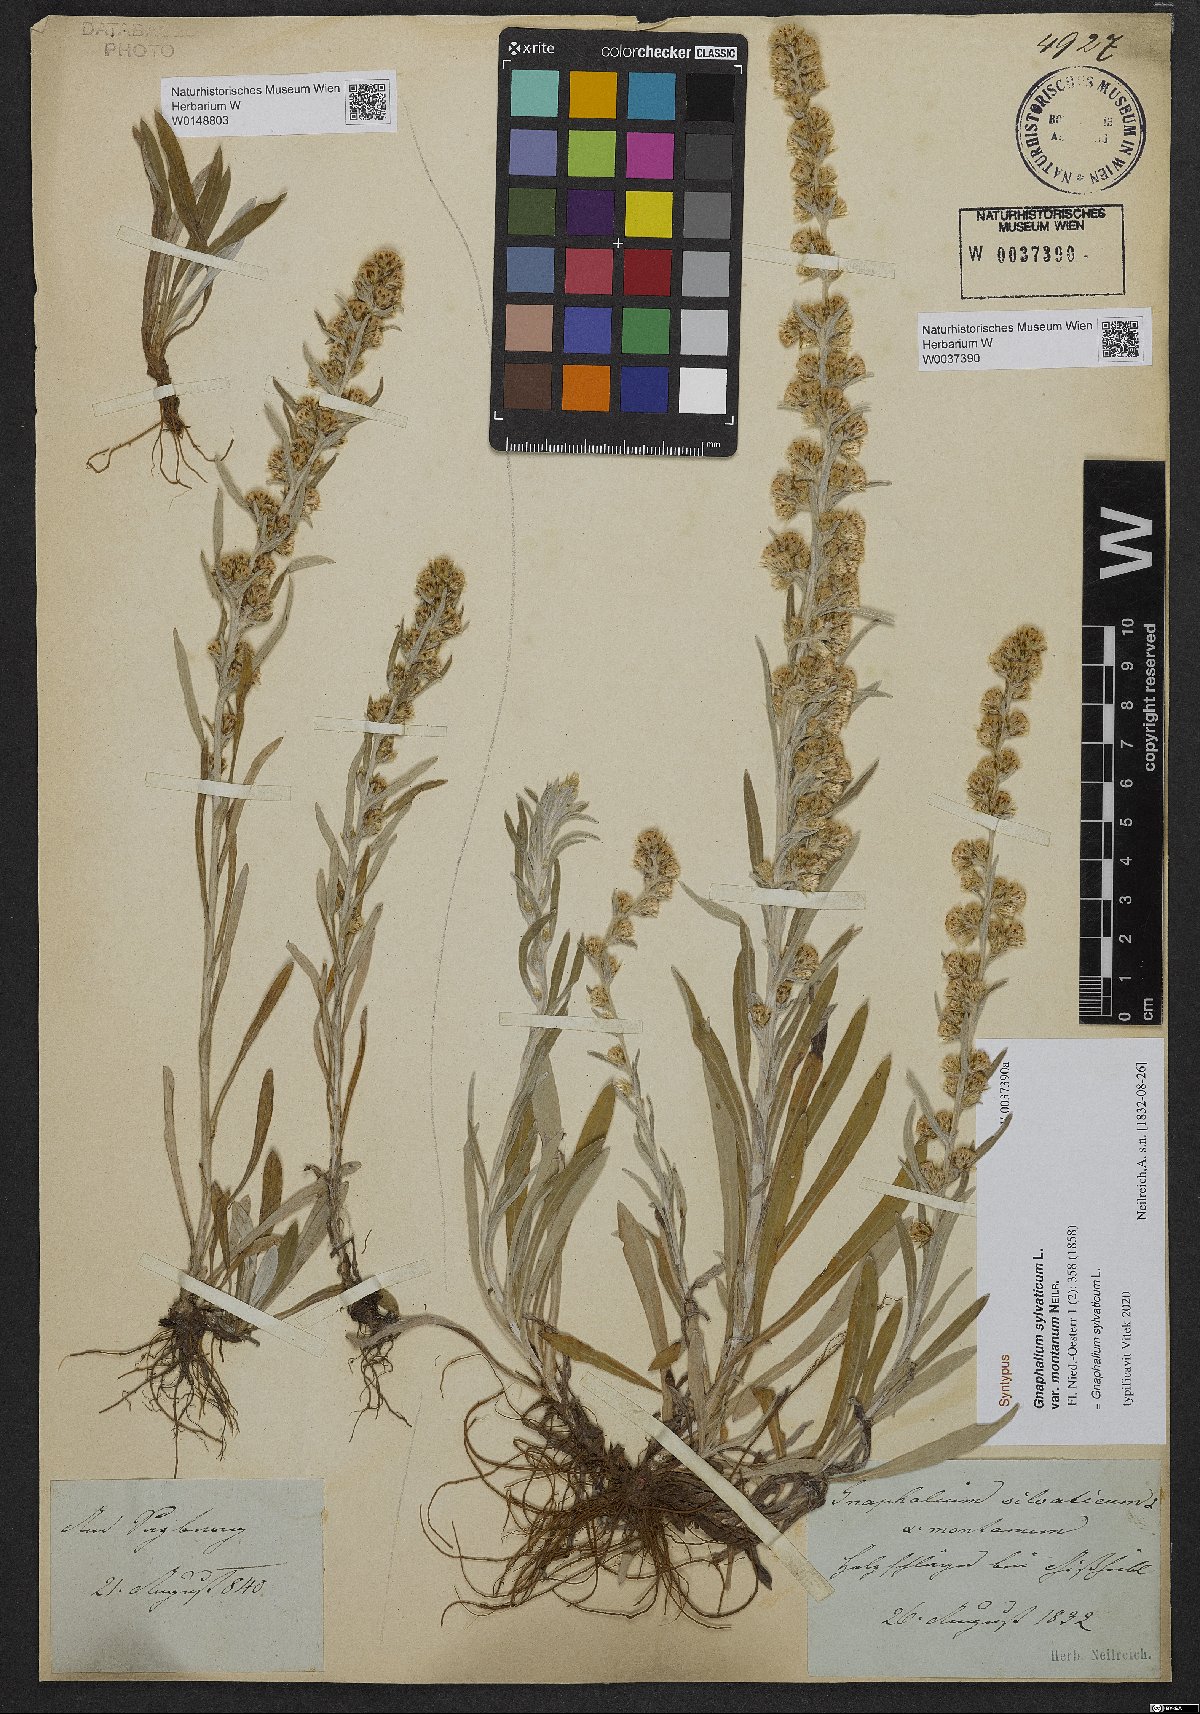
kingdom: Plantae
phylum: Tracheophyta
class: Magnoliopsida
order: Asterales
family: Asteraceae
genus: Omalotheca
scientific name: Omalotheca sylvatica
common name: Heath cudweed
